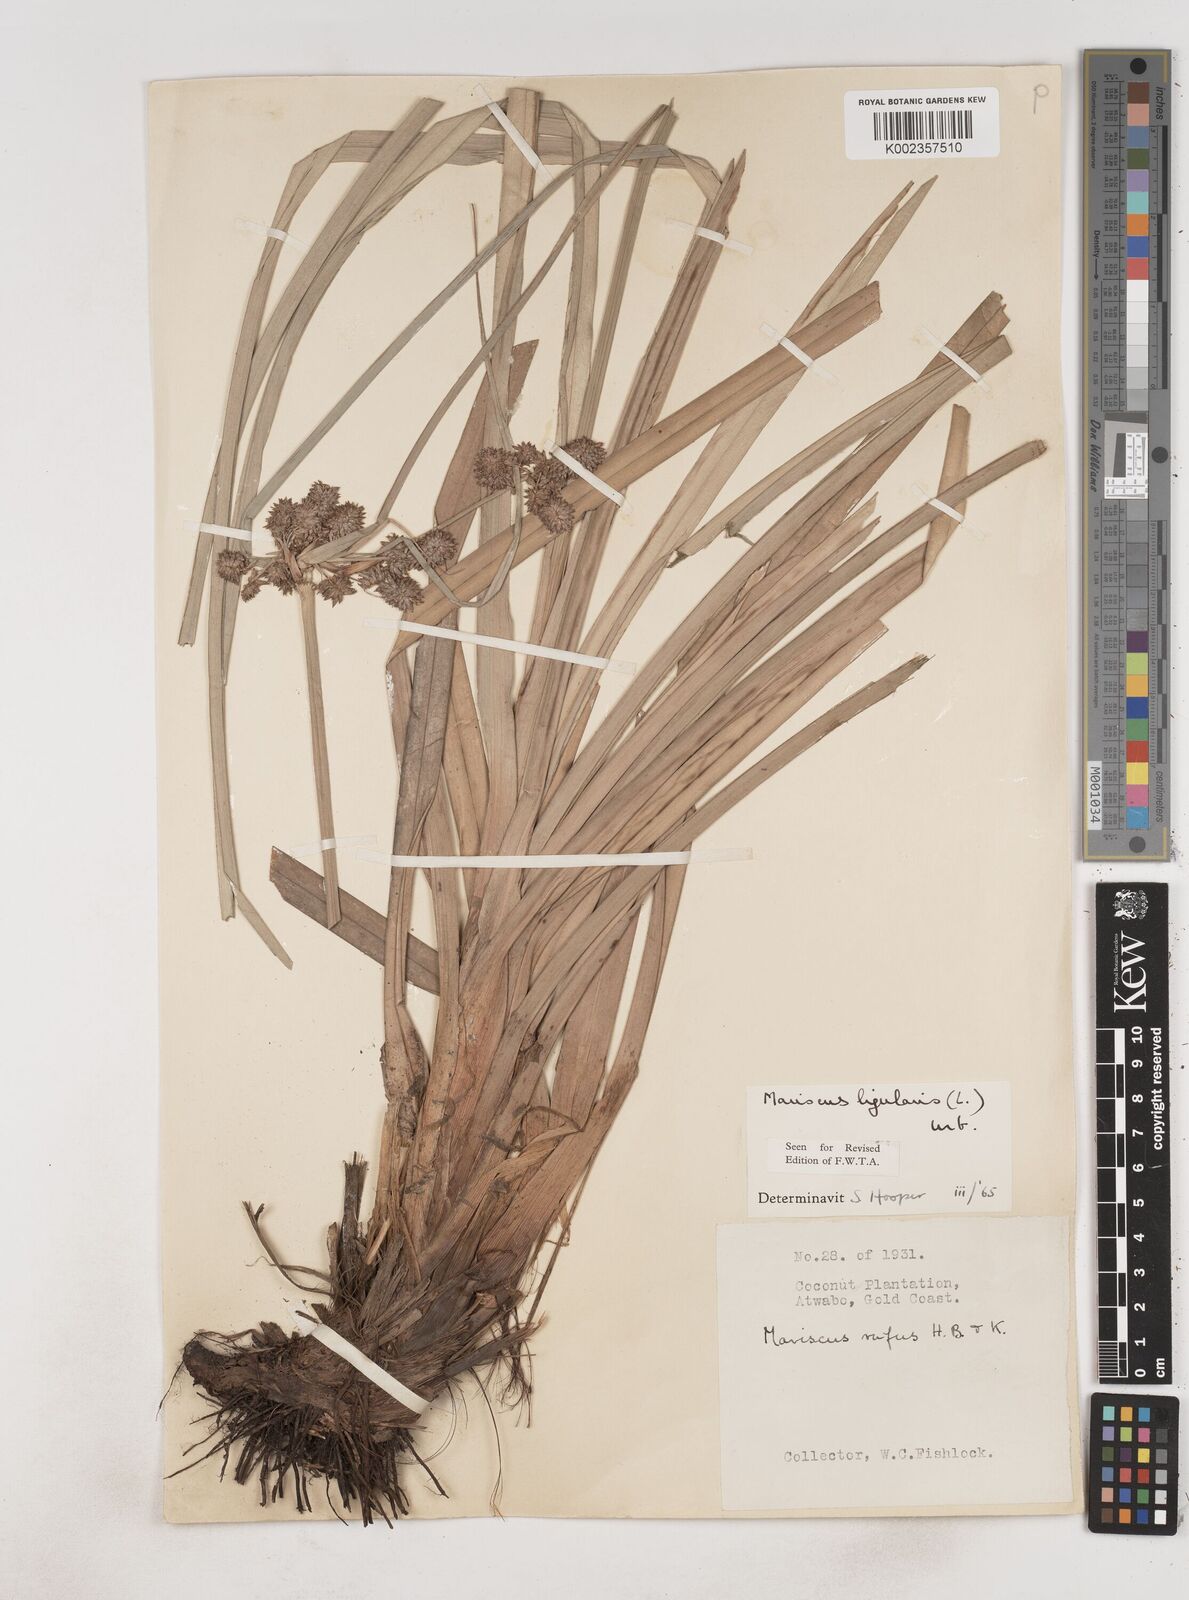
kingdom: Plantae
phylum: Tracheophyta
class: Liliopsida
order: Poales
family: Cyperaceae
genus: Cyperus
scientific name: Cyperus ligularis
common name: Swamp flat sedge
